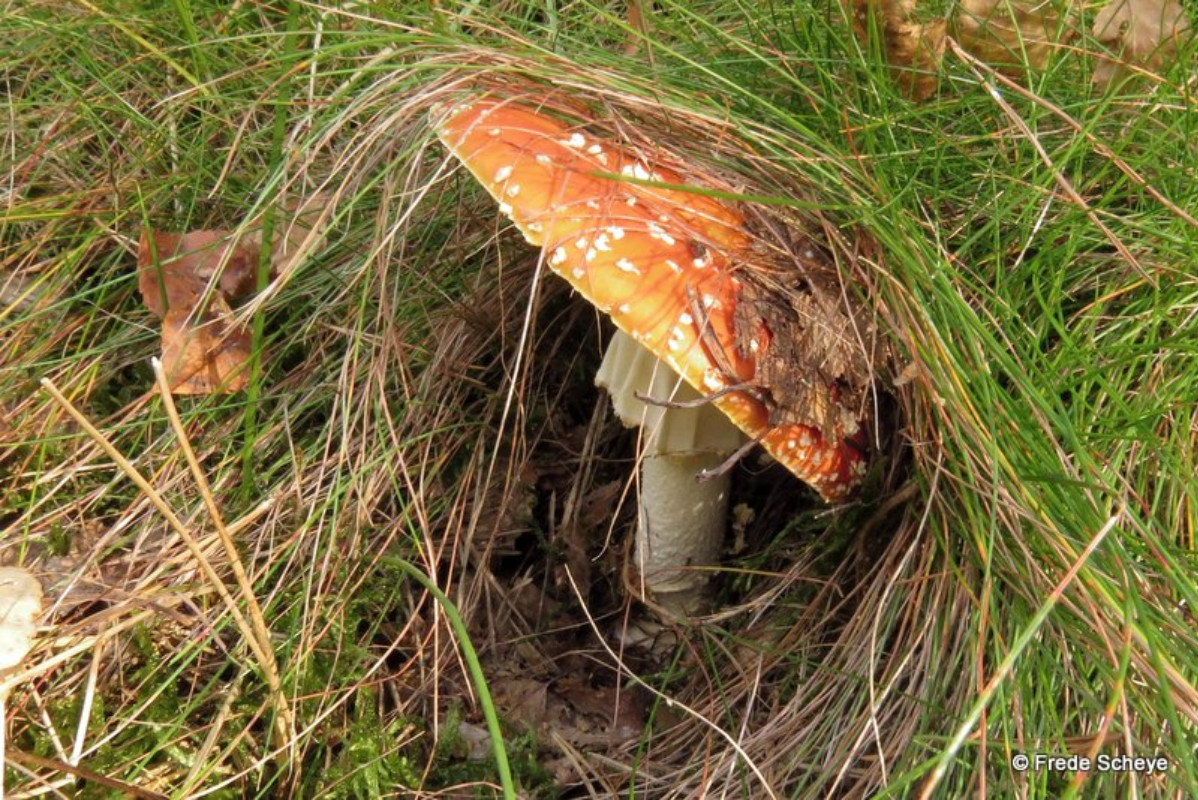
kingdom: Fungi
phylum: Basidiomycota
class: Agaricomycetes
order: Agaricales
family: Amanitaceae
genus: Amanita
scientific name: Amanita muscaria
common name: rød fluesvamp
